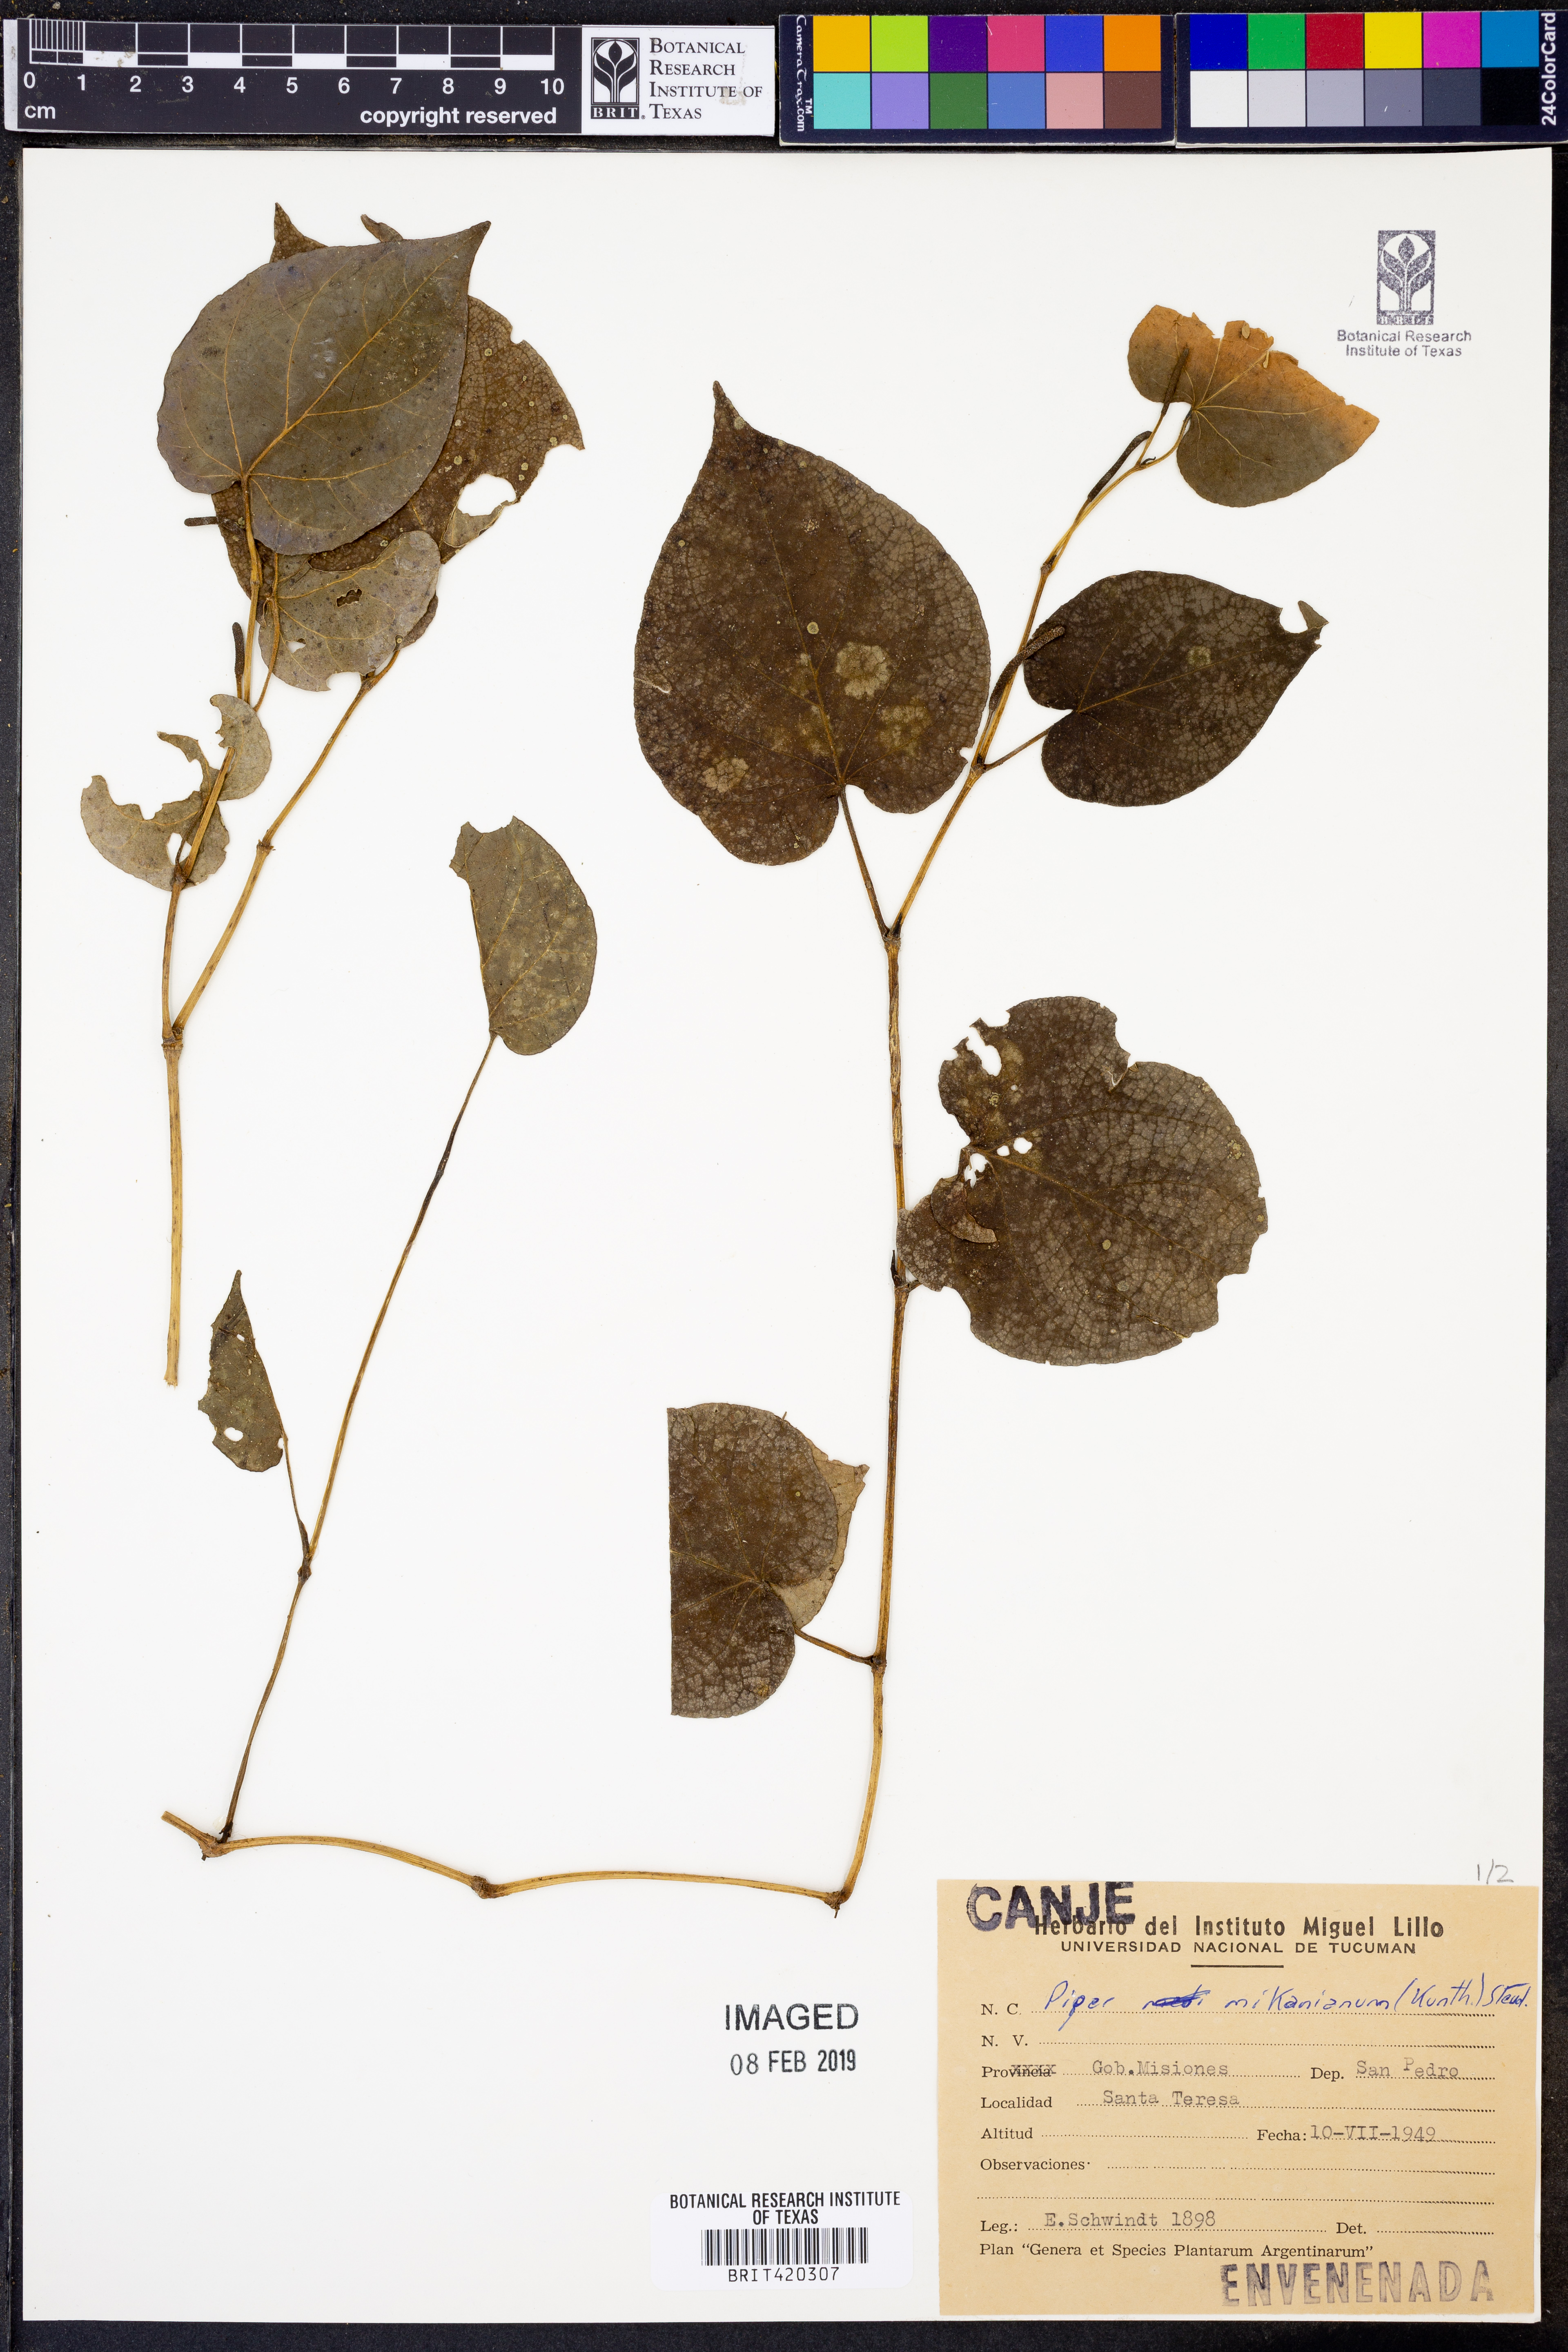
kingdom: Plantae
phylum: Tracheophyta
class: Magnoliopsida
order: Piperales
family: Piperaceae
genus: Piper
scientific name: Piper mikanianum
